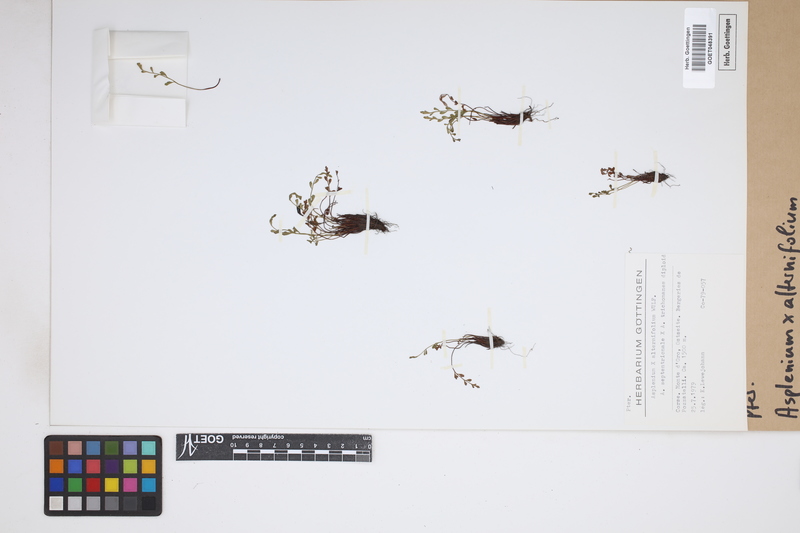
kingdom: Plantae
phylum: Tracheophyta
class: Polypodiopsida
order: Polypodiales
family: Aspleniaceae
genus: Asplenium
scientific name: Asplenium alternifolium
